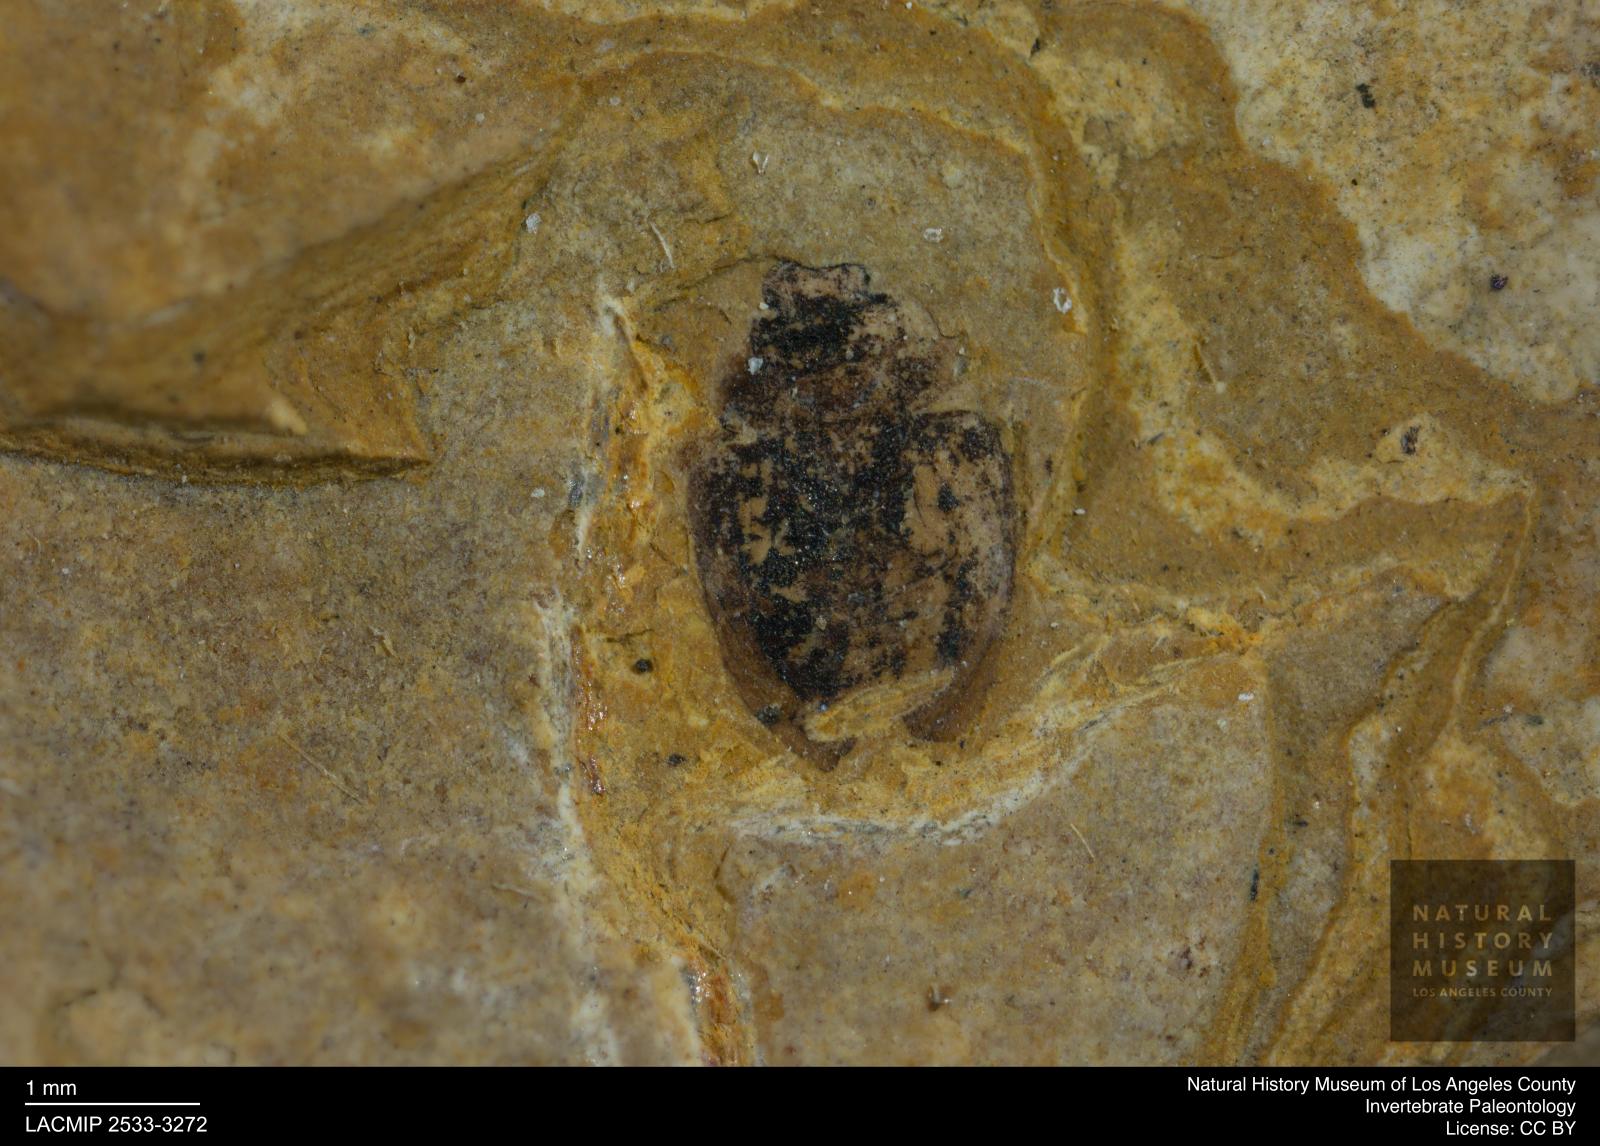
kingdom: Animalia
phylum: Arthropoda
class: Insecta
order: Coleoptera
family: Hydrophilidae
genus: Paracymus
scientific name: Paracymus excitatus
